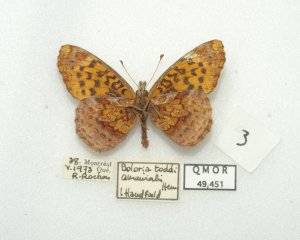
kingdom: Animalia
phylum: Arthropoda
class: Insecta
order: Lepidoptera
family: Nymphalidae
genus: Clossiana
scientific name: Clossiana toddi
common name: Meadow Fritillary
